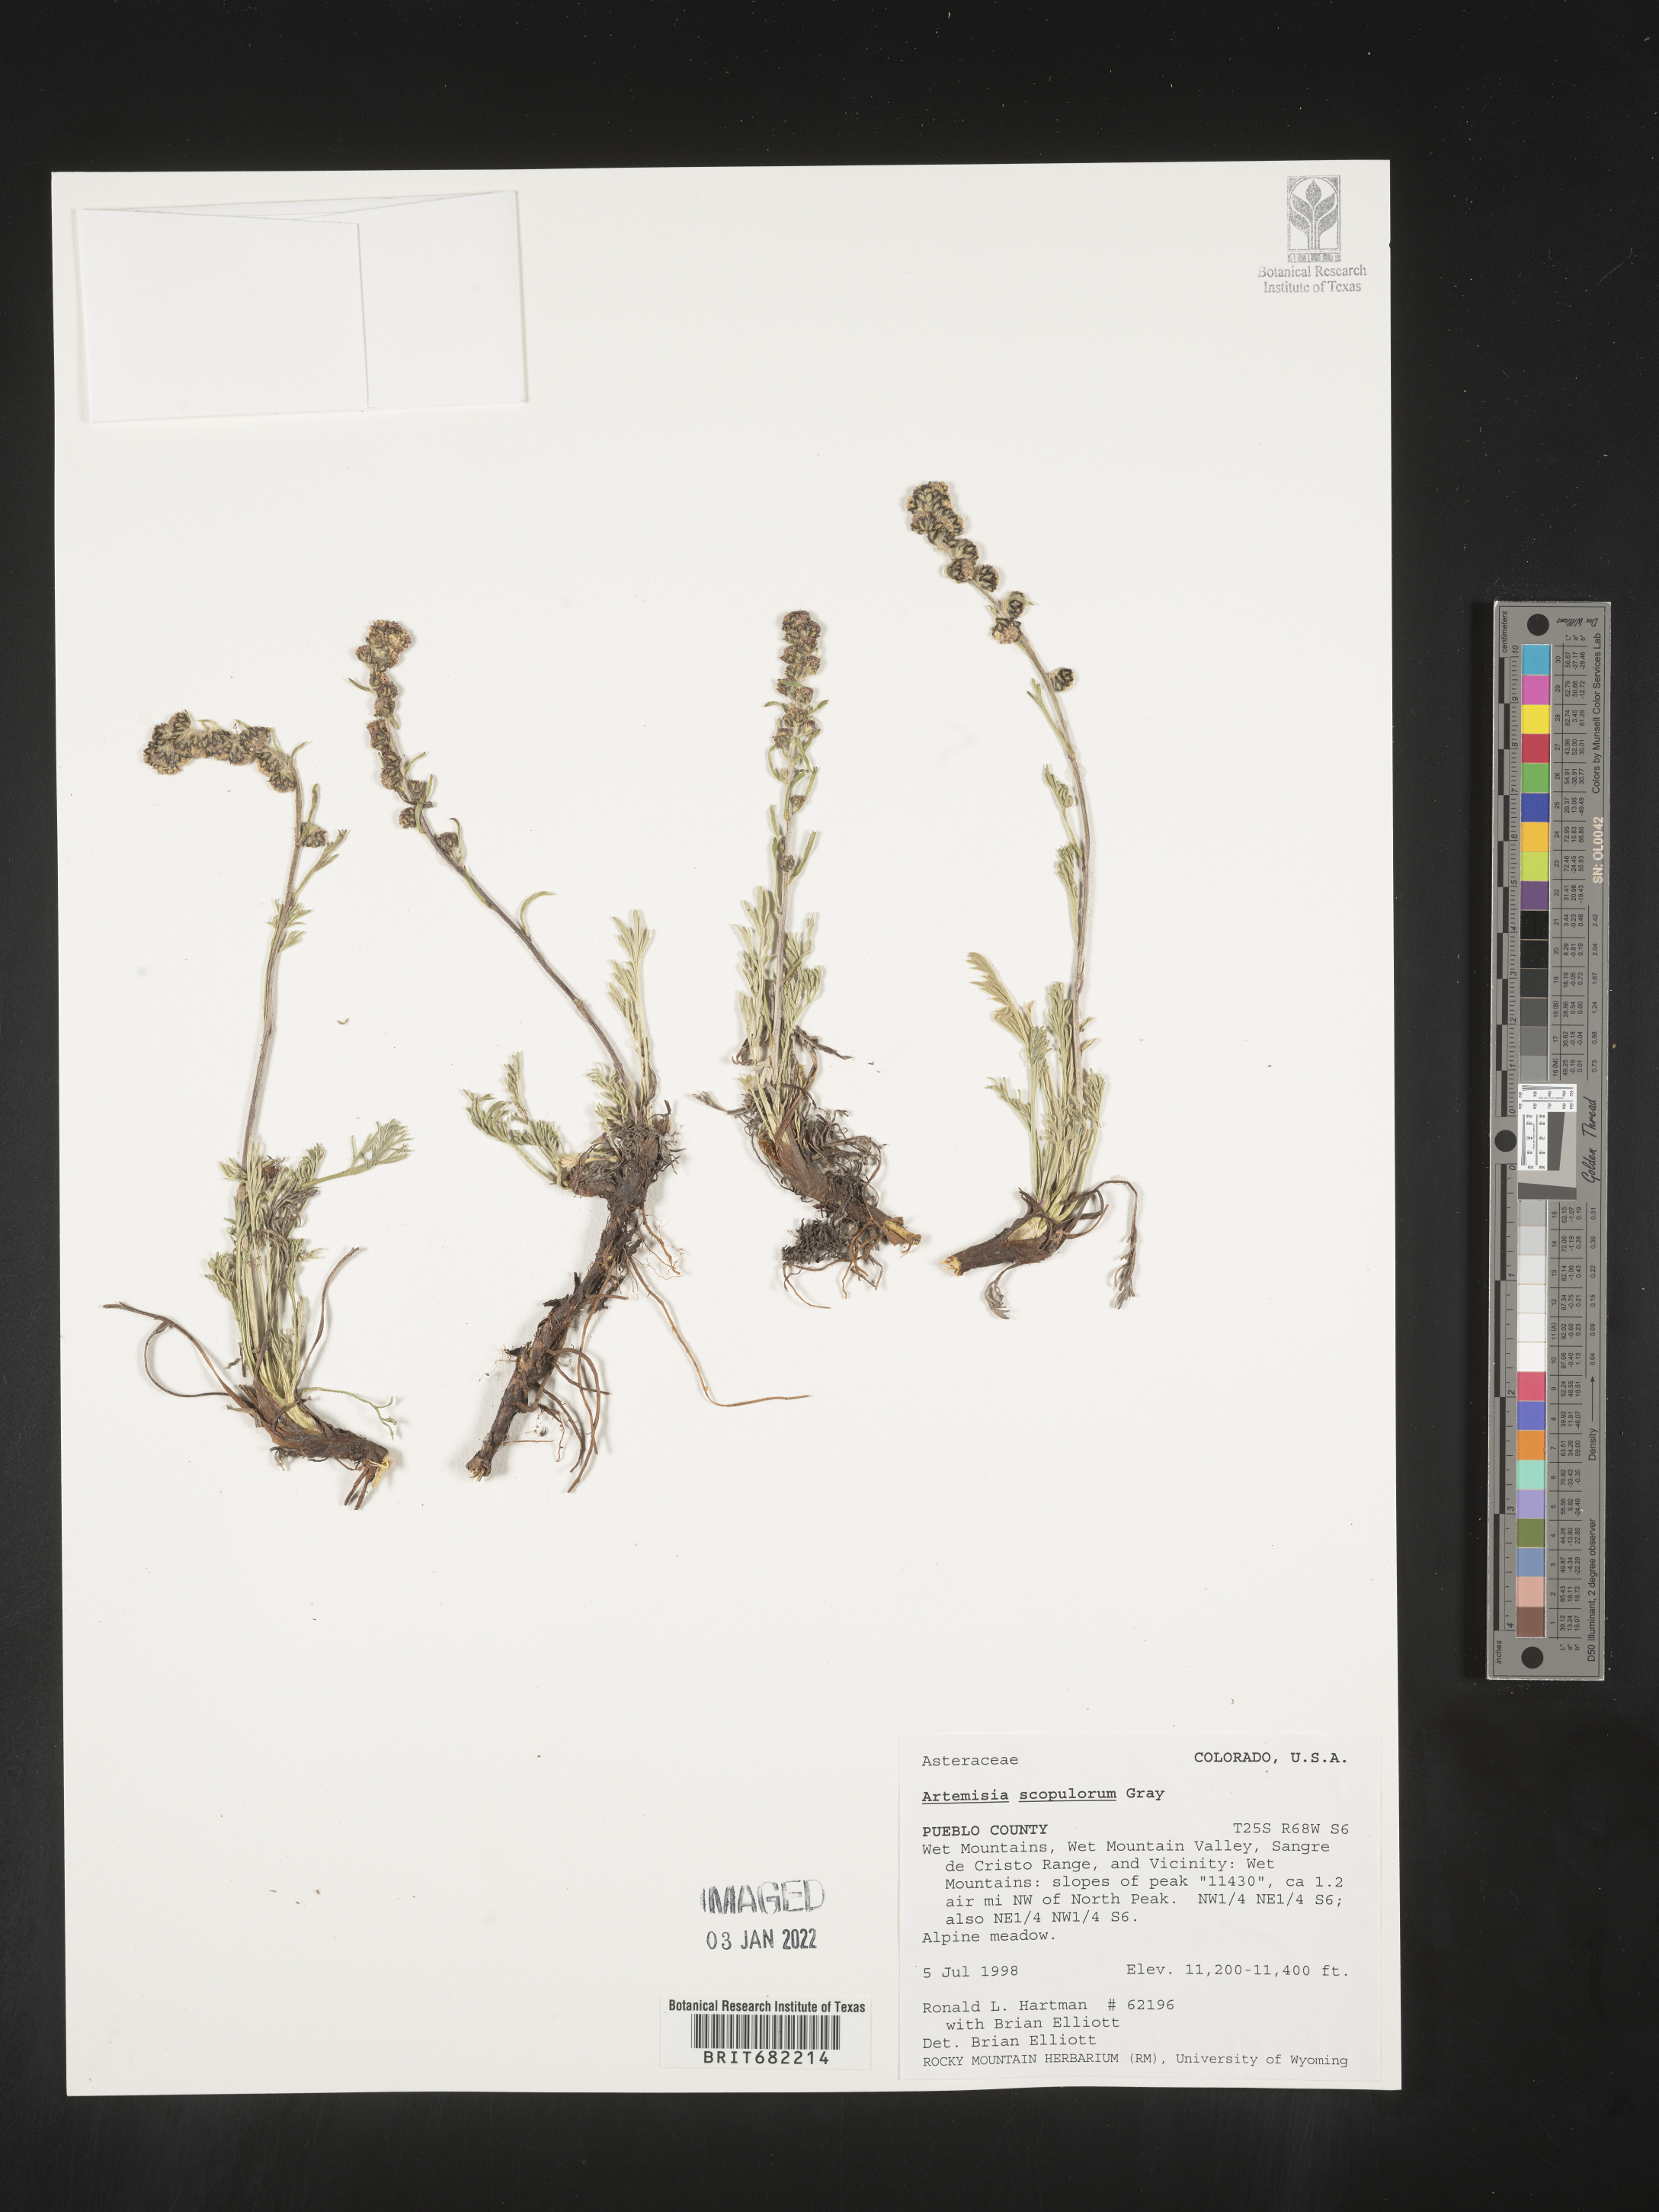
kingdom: Plantae
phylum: Tracheophyta
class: Magnoliopsida
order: Asterales
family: Asteraceae
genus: Artemisia
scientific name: Artemisia scopulorum
